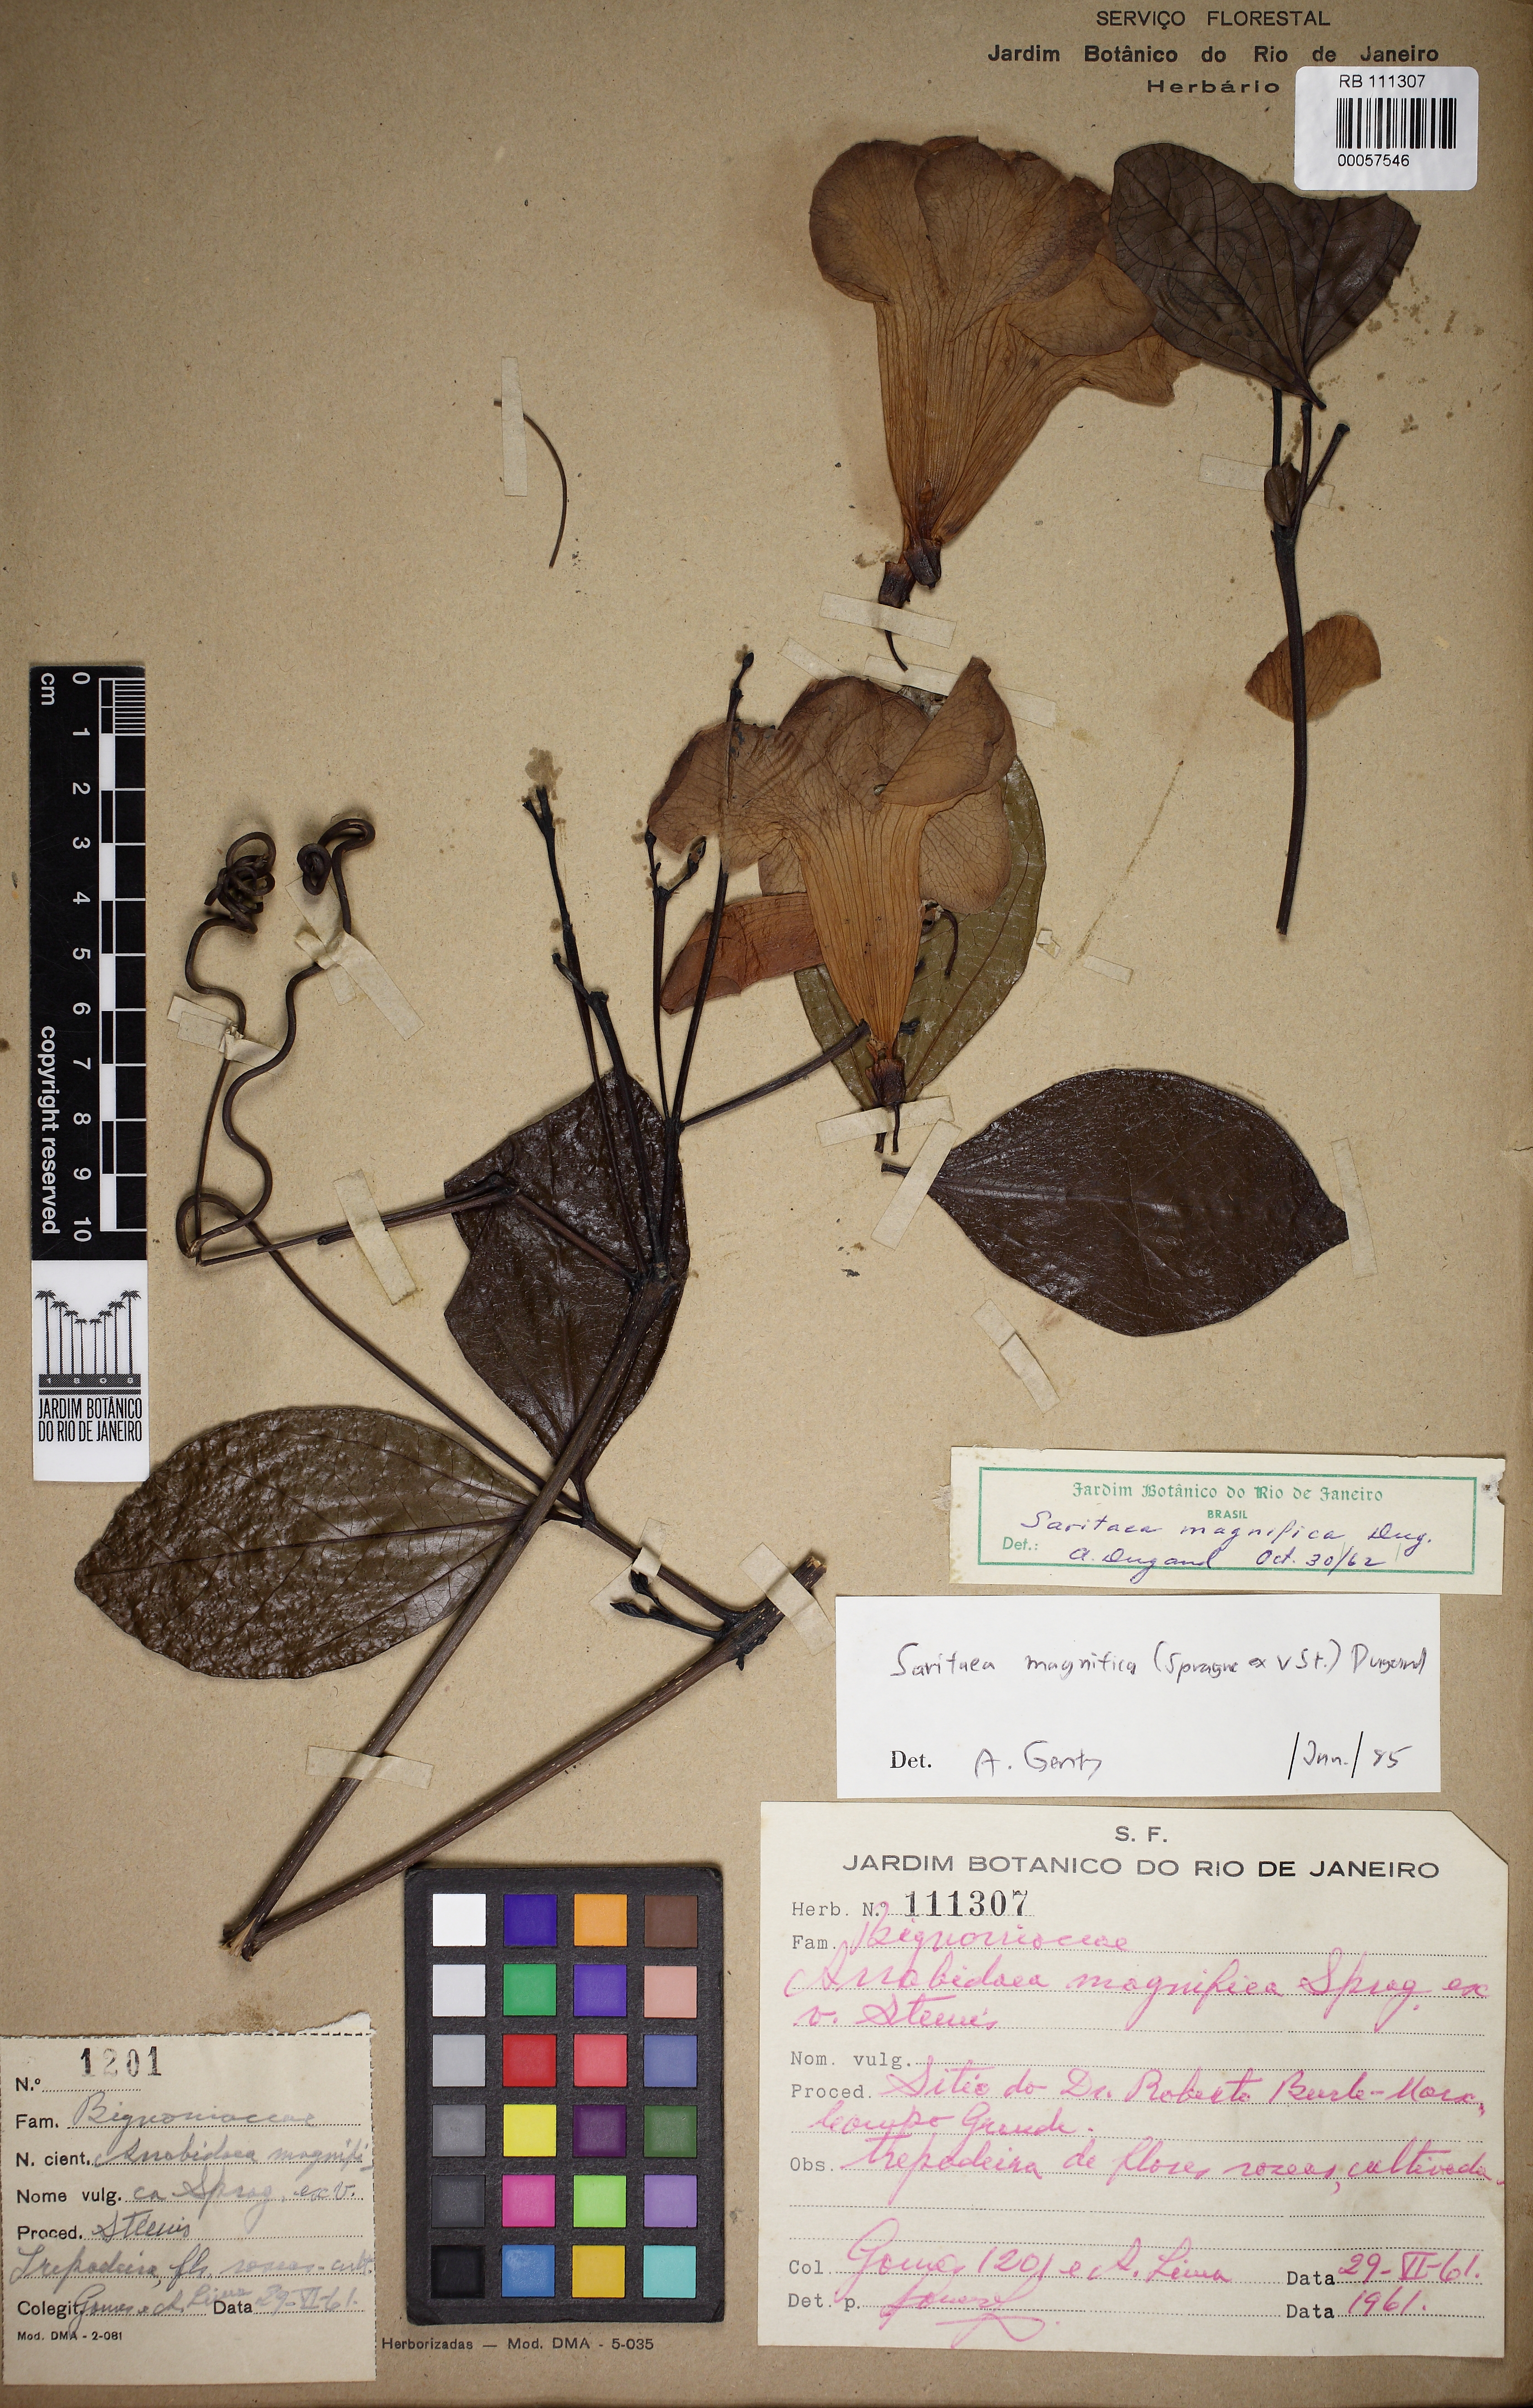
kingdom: Plantae
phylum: Tracheophyta
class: Magnoliopsida
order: Lamiales
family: Bignoniaceae
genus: Bignonia
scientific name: Bignonia magnifica
